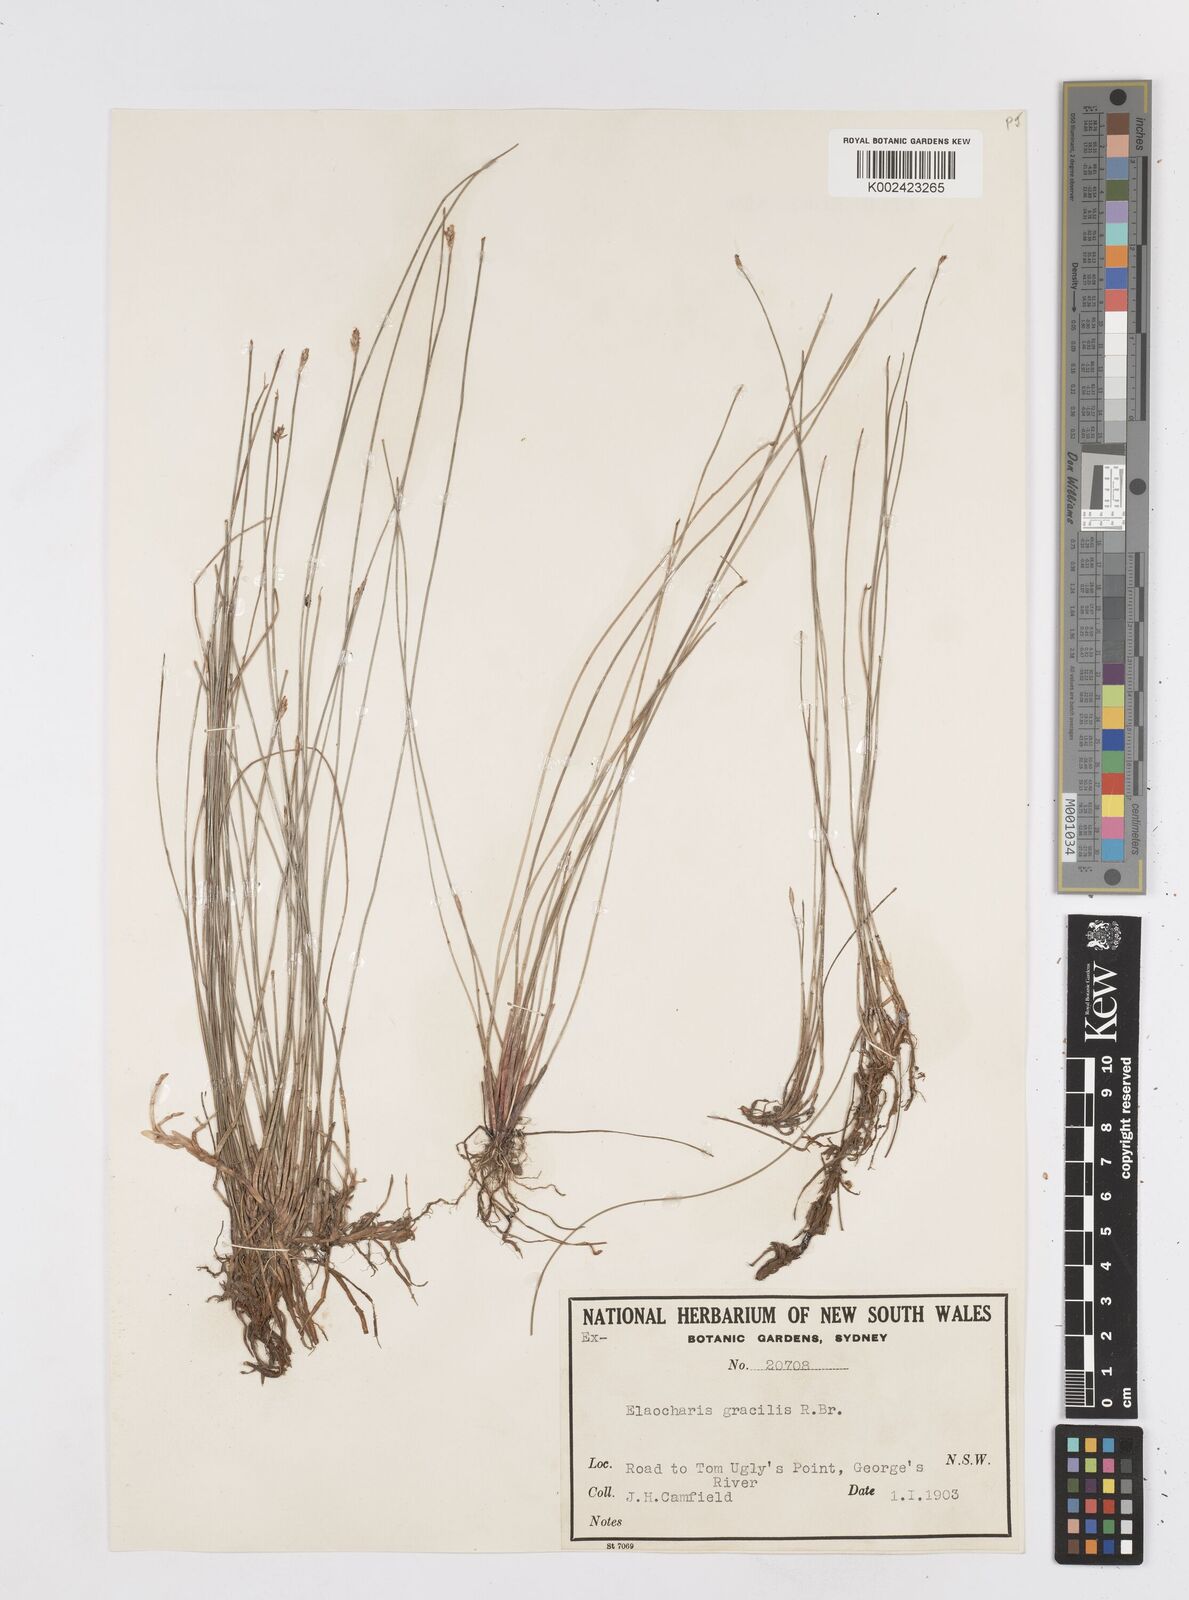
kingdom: Plantae
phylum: Tracheophyta
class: Liliopsida
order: Poales
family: Cyperaceae
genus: Eleocharis
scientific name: Eleocharis multicaulis
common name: Many-stalked spike-rush
